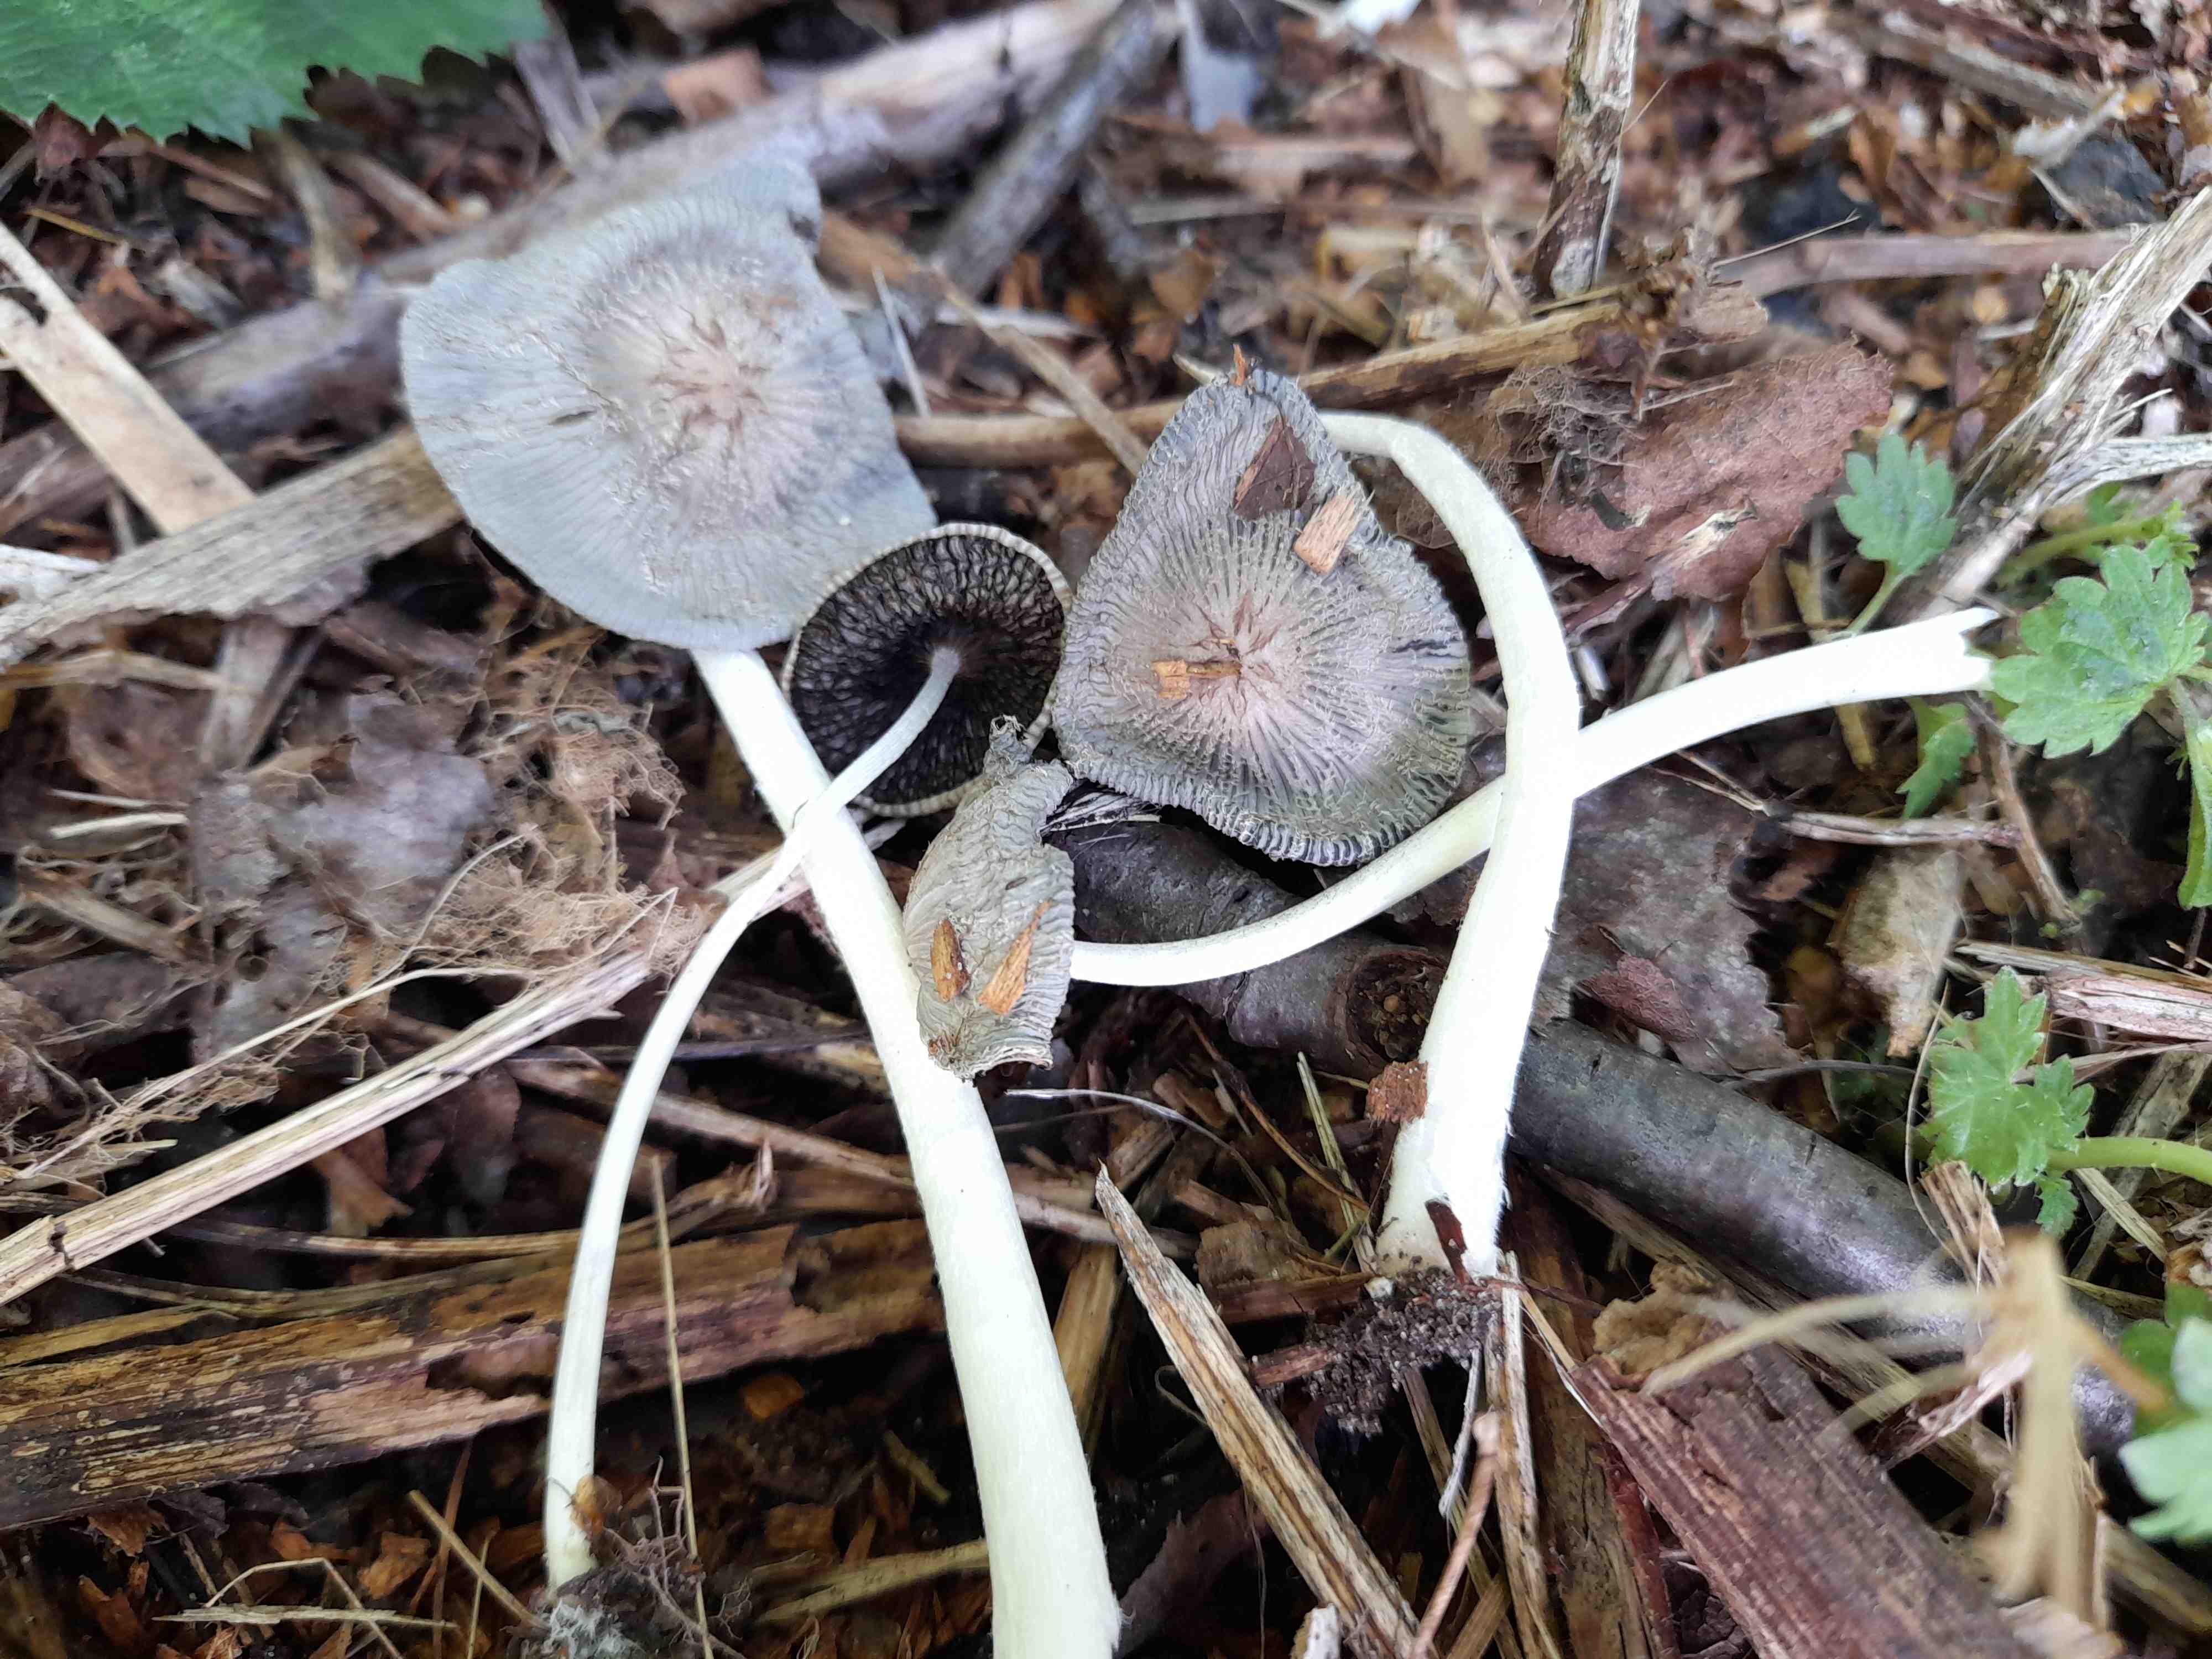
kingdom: Fungi
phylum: Basidiomycota
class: Agaricomycetes
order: Agaricales
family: Psathyrellaceae
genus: Coprinopsis
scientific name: Coprinopsis
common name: blækhat
